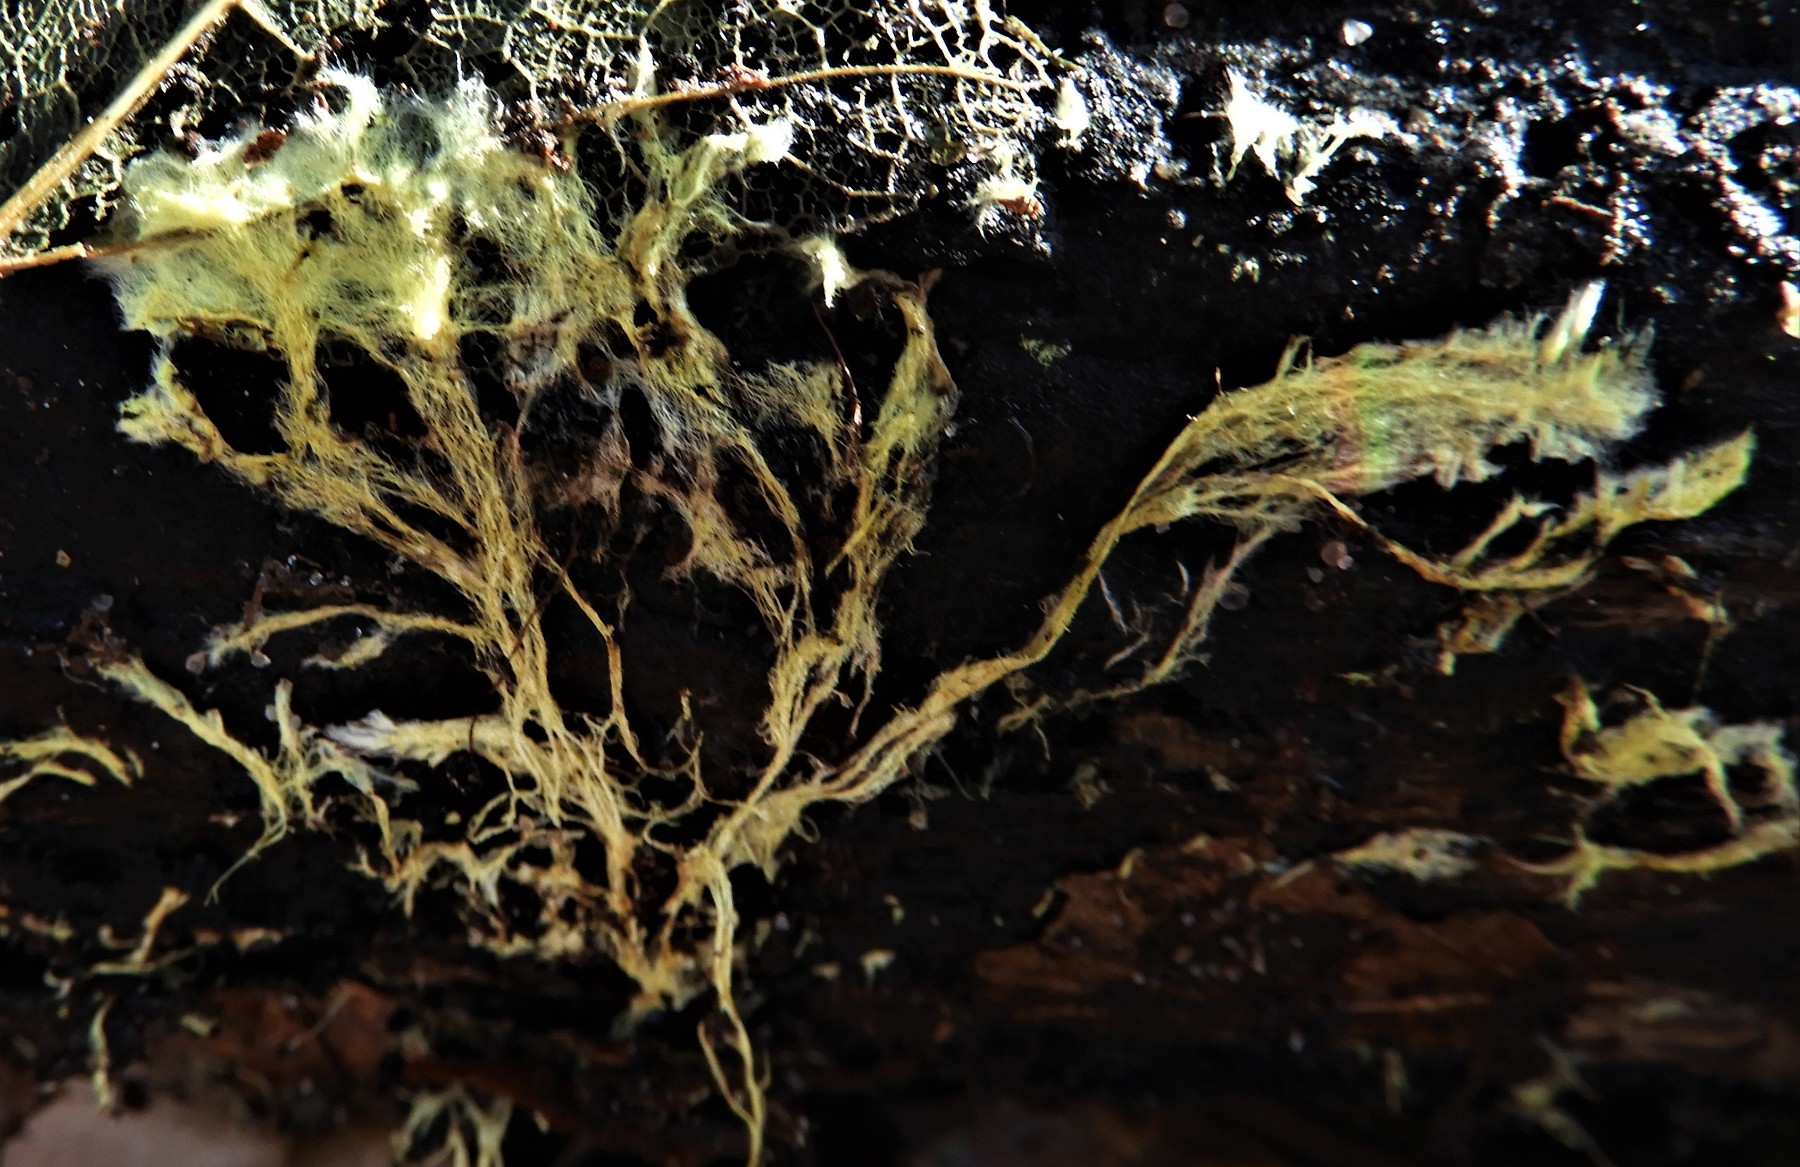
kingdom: Fungi
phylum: Basidiomycota
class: Agaricomycetes
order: Russulales
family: Xenasmataceae
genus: Xenasmatella
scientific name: Xenasmatella vaga
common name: svovl-strenghinde
